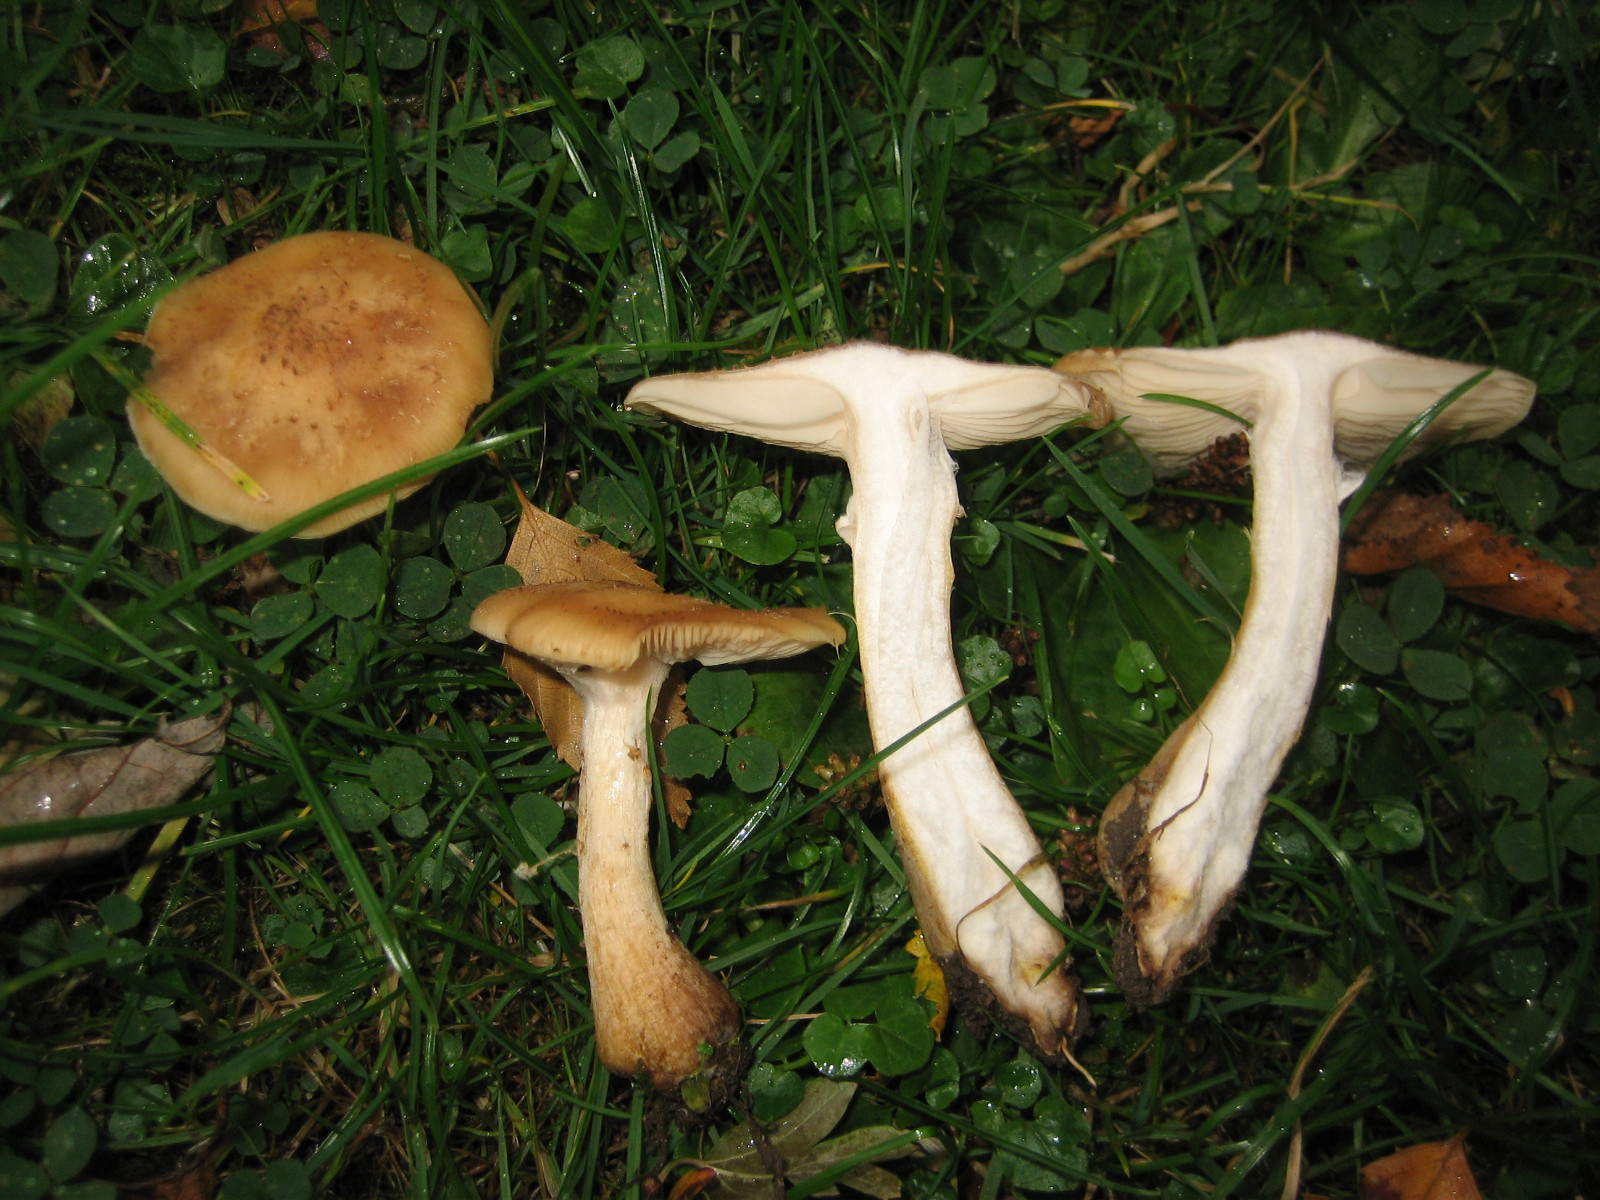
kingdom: Fungi
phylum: Basidiomycota
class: Agaricomycetes
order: Agaricales
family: Physalacriaceae
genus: Armillaria
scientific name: Armillaria lutea
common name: køllestokket honningsvamp
